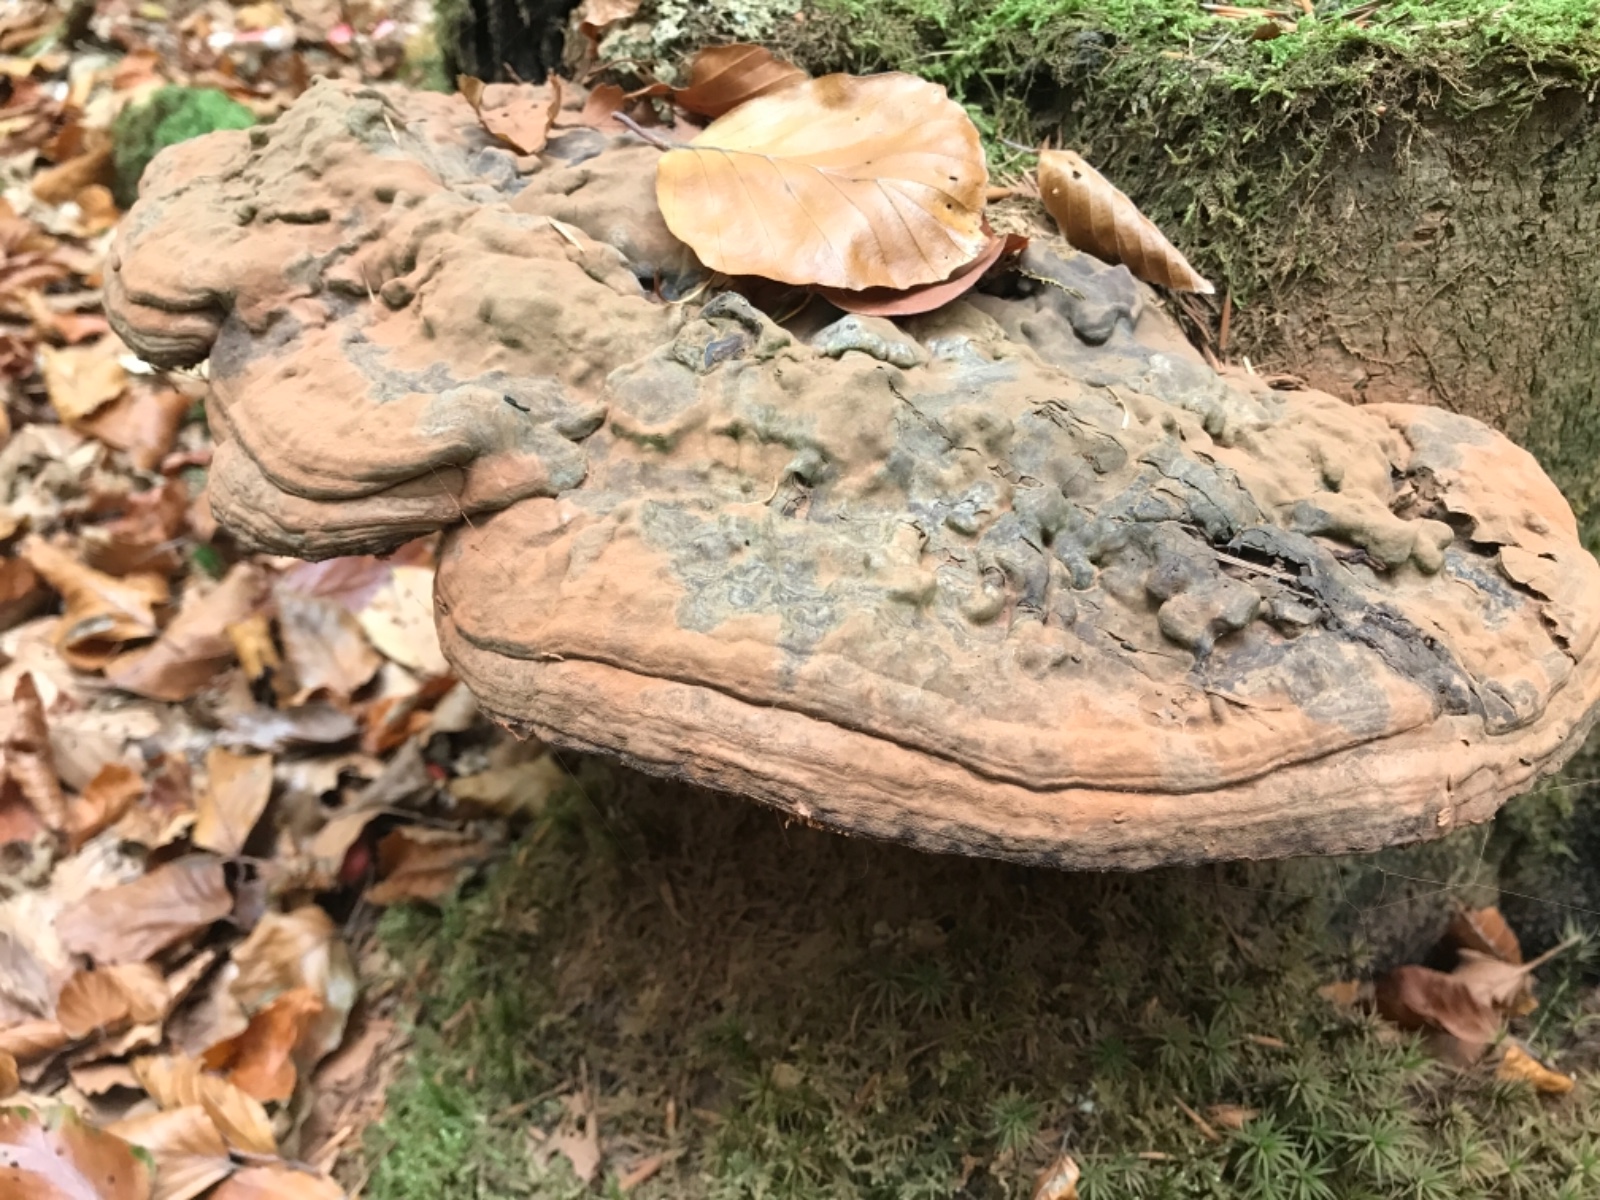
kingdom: Fungi
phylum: Basidiomycota
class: Agaricomycetes
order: Polyporales
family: Polyporaceae
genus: Ganoderma
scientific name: Ganoderma applanatum
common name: flad lakporesvamp
